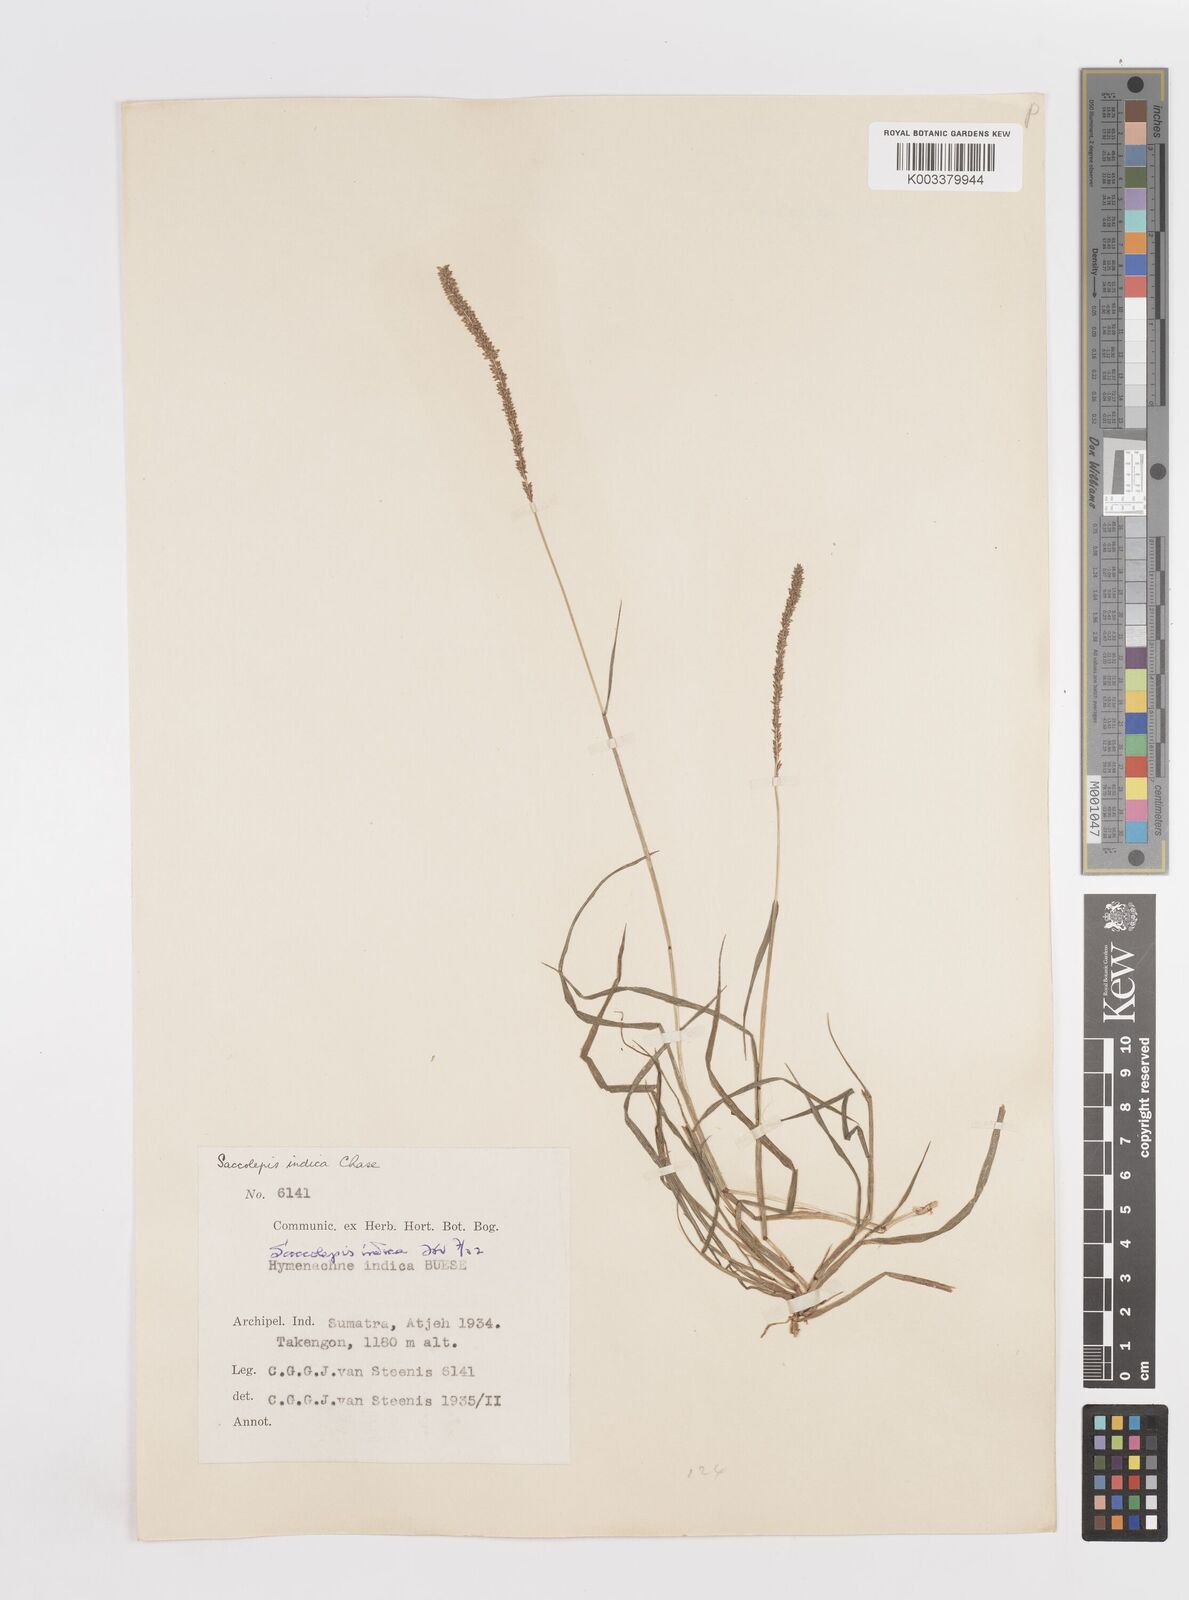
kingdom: Plantae
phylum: Tracheophyta
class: Liliopsida
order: Poales
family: Poaceae
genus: Sacciolepis
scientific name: Sacciolepis indica
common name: Glenwoodgrass
